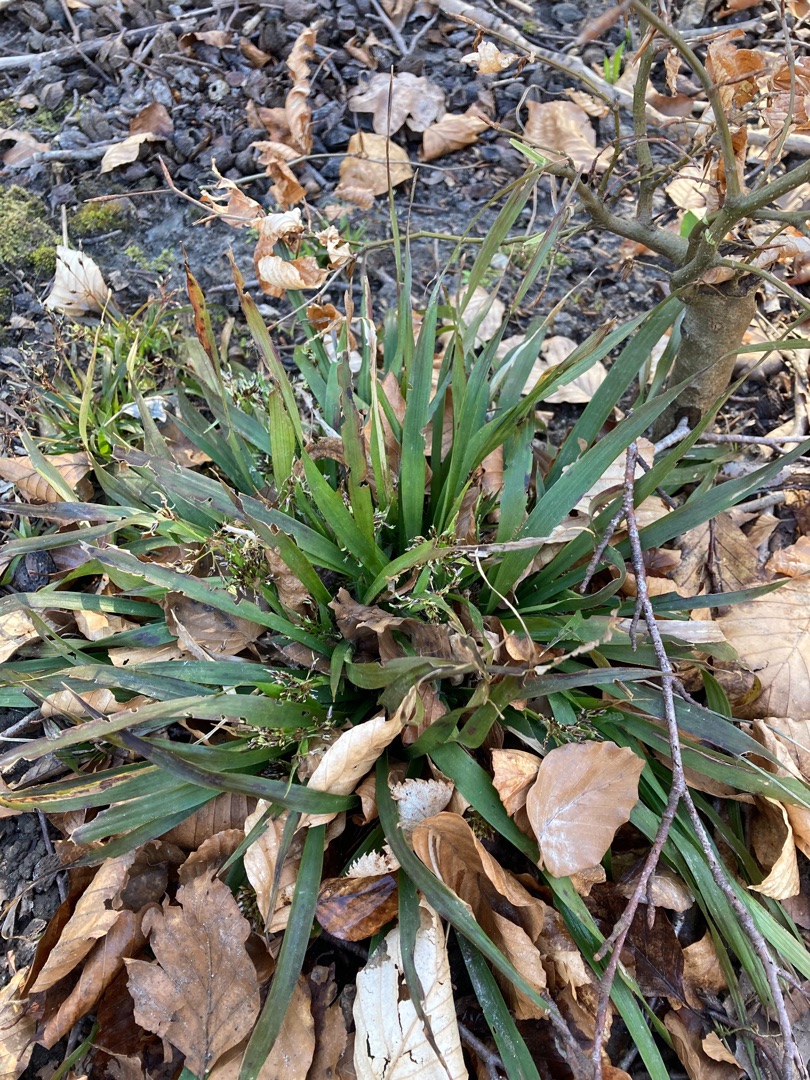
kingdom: Plantae
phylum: Tracheophyta
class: Liliopsida
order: Poales
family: Juncaceae
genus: Luzula
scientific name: Luzula pilosa
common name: Håret frytle
